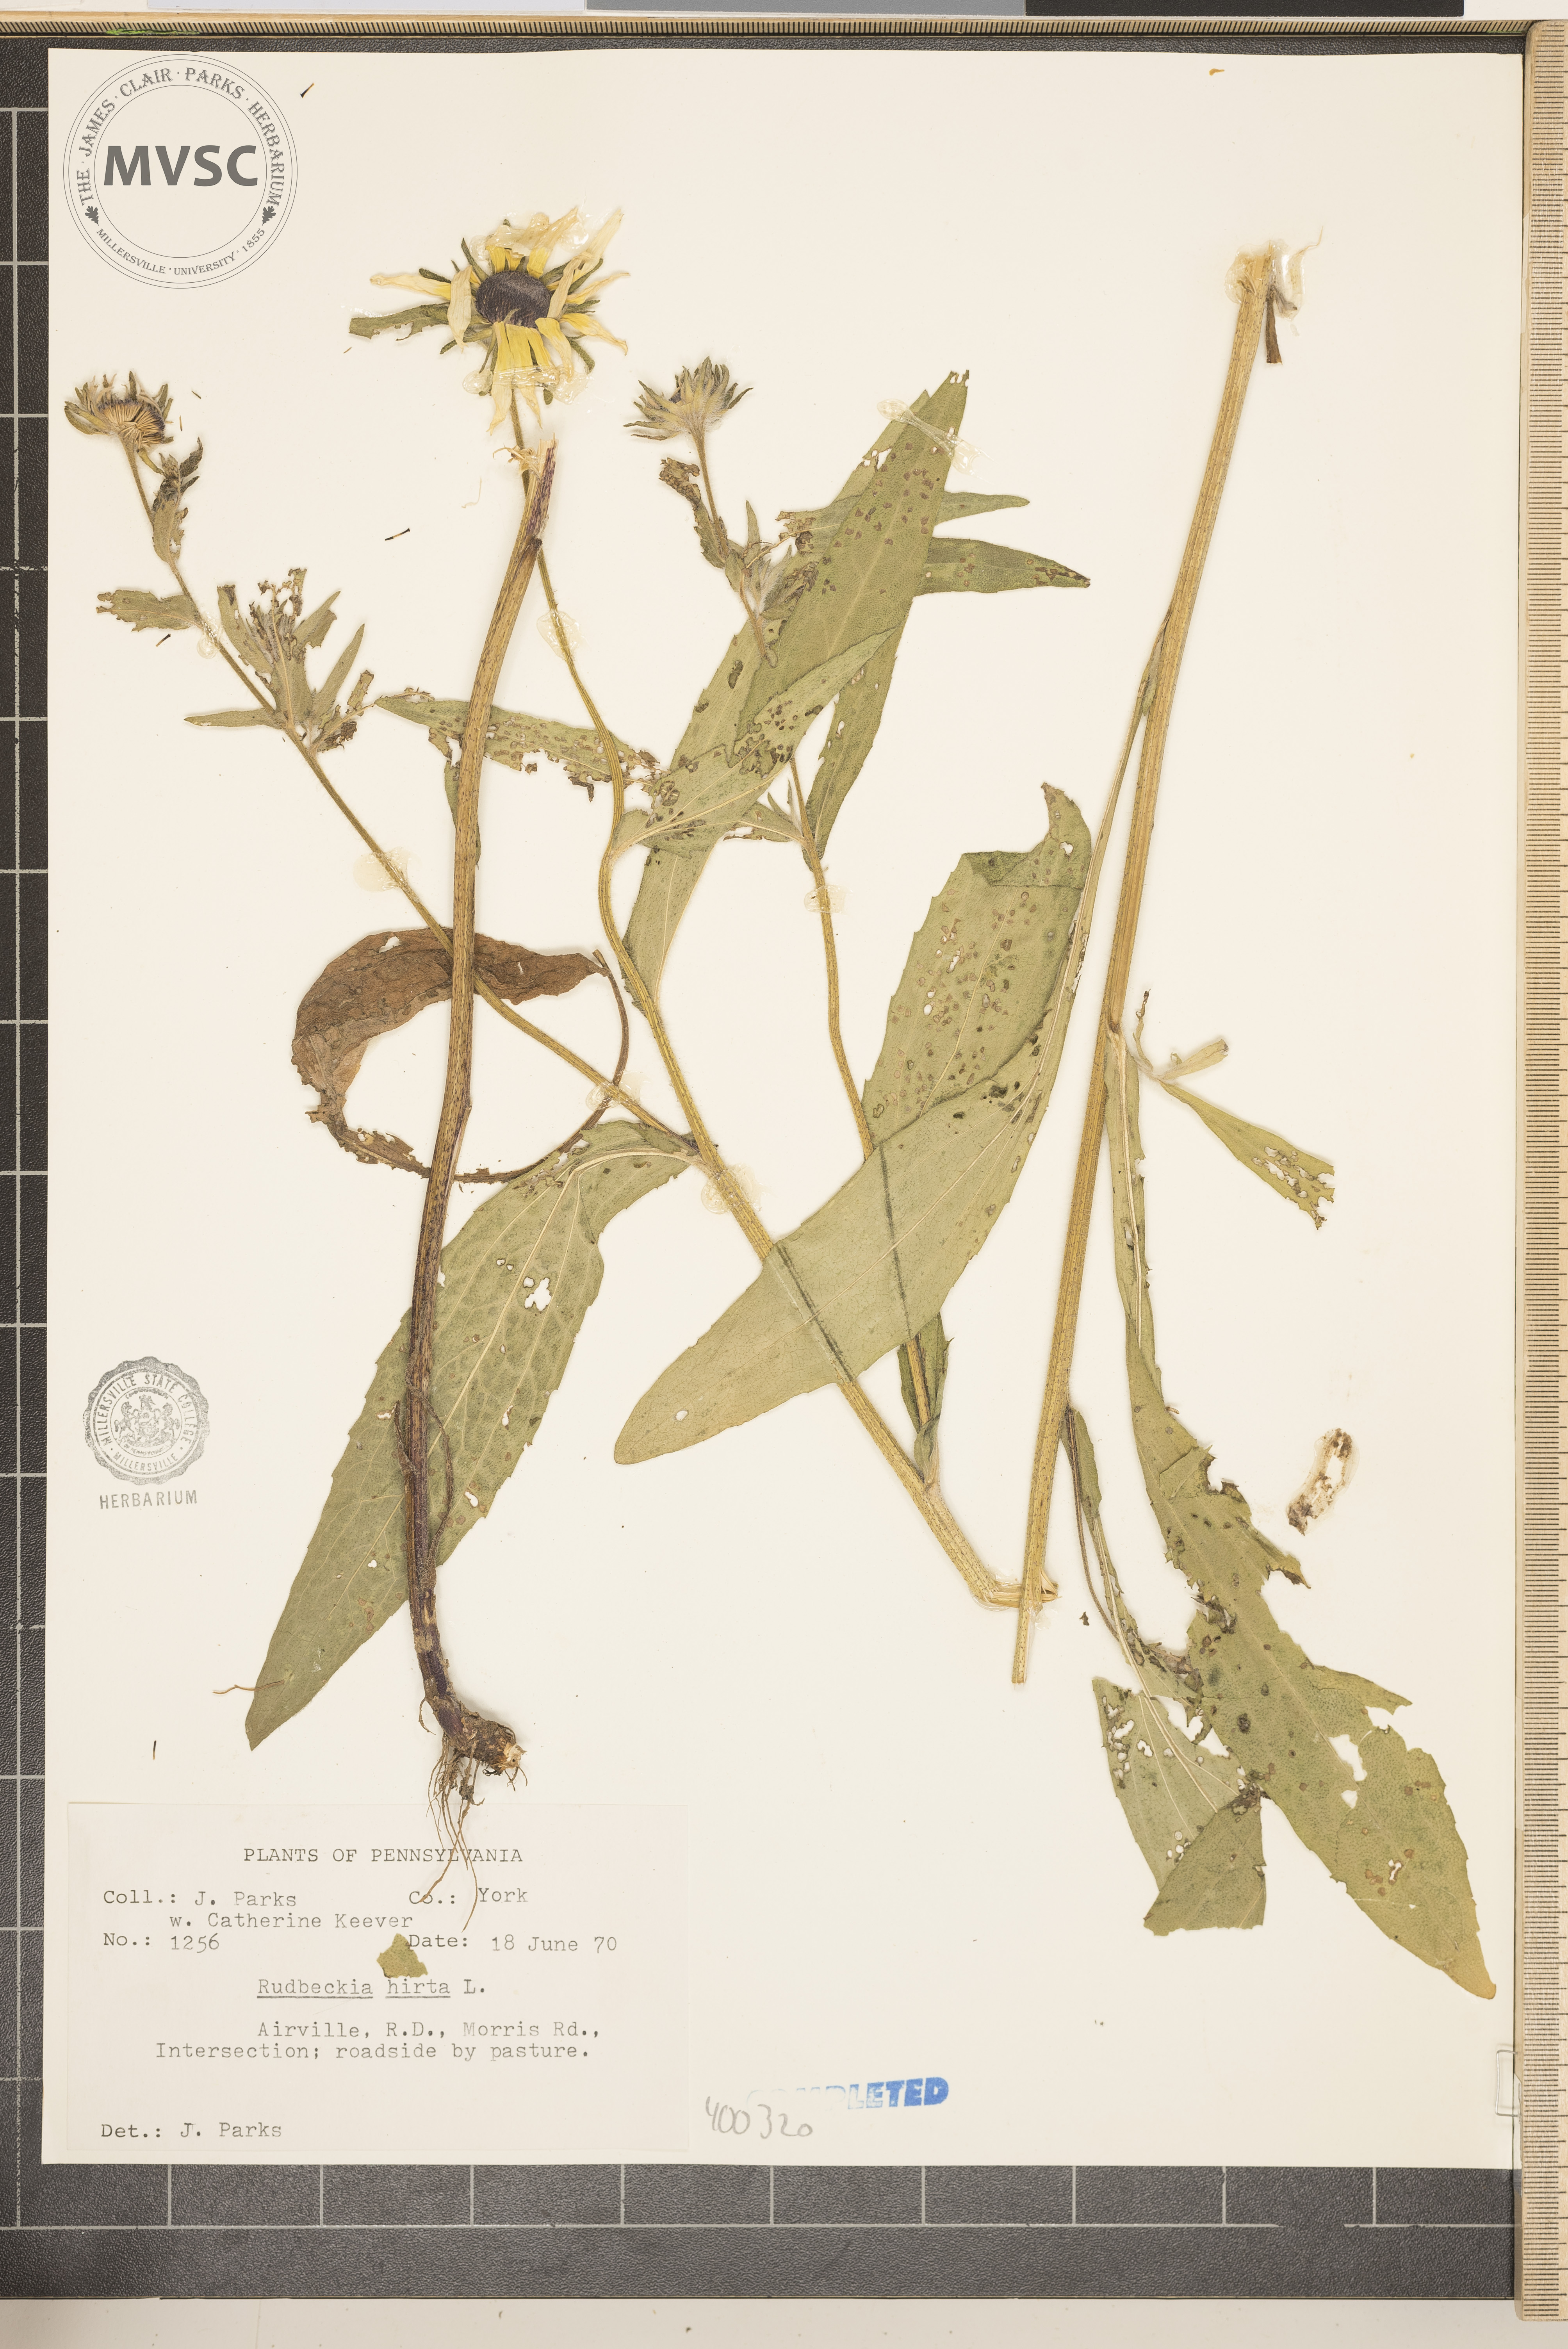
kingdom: Plantae
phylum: Tracheophyta
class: Magnoliopsida
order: Asterales
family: Asteraceae
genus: Rudbeckia
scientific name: Rudbeckia hirta
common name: black-eyed Susan
